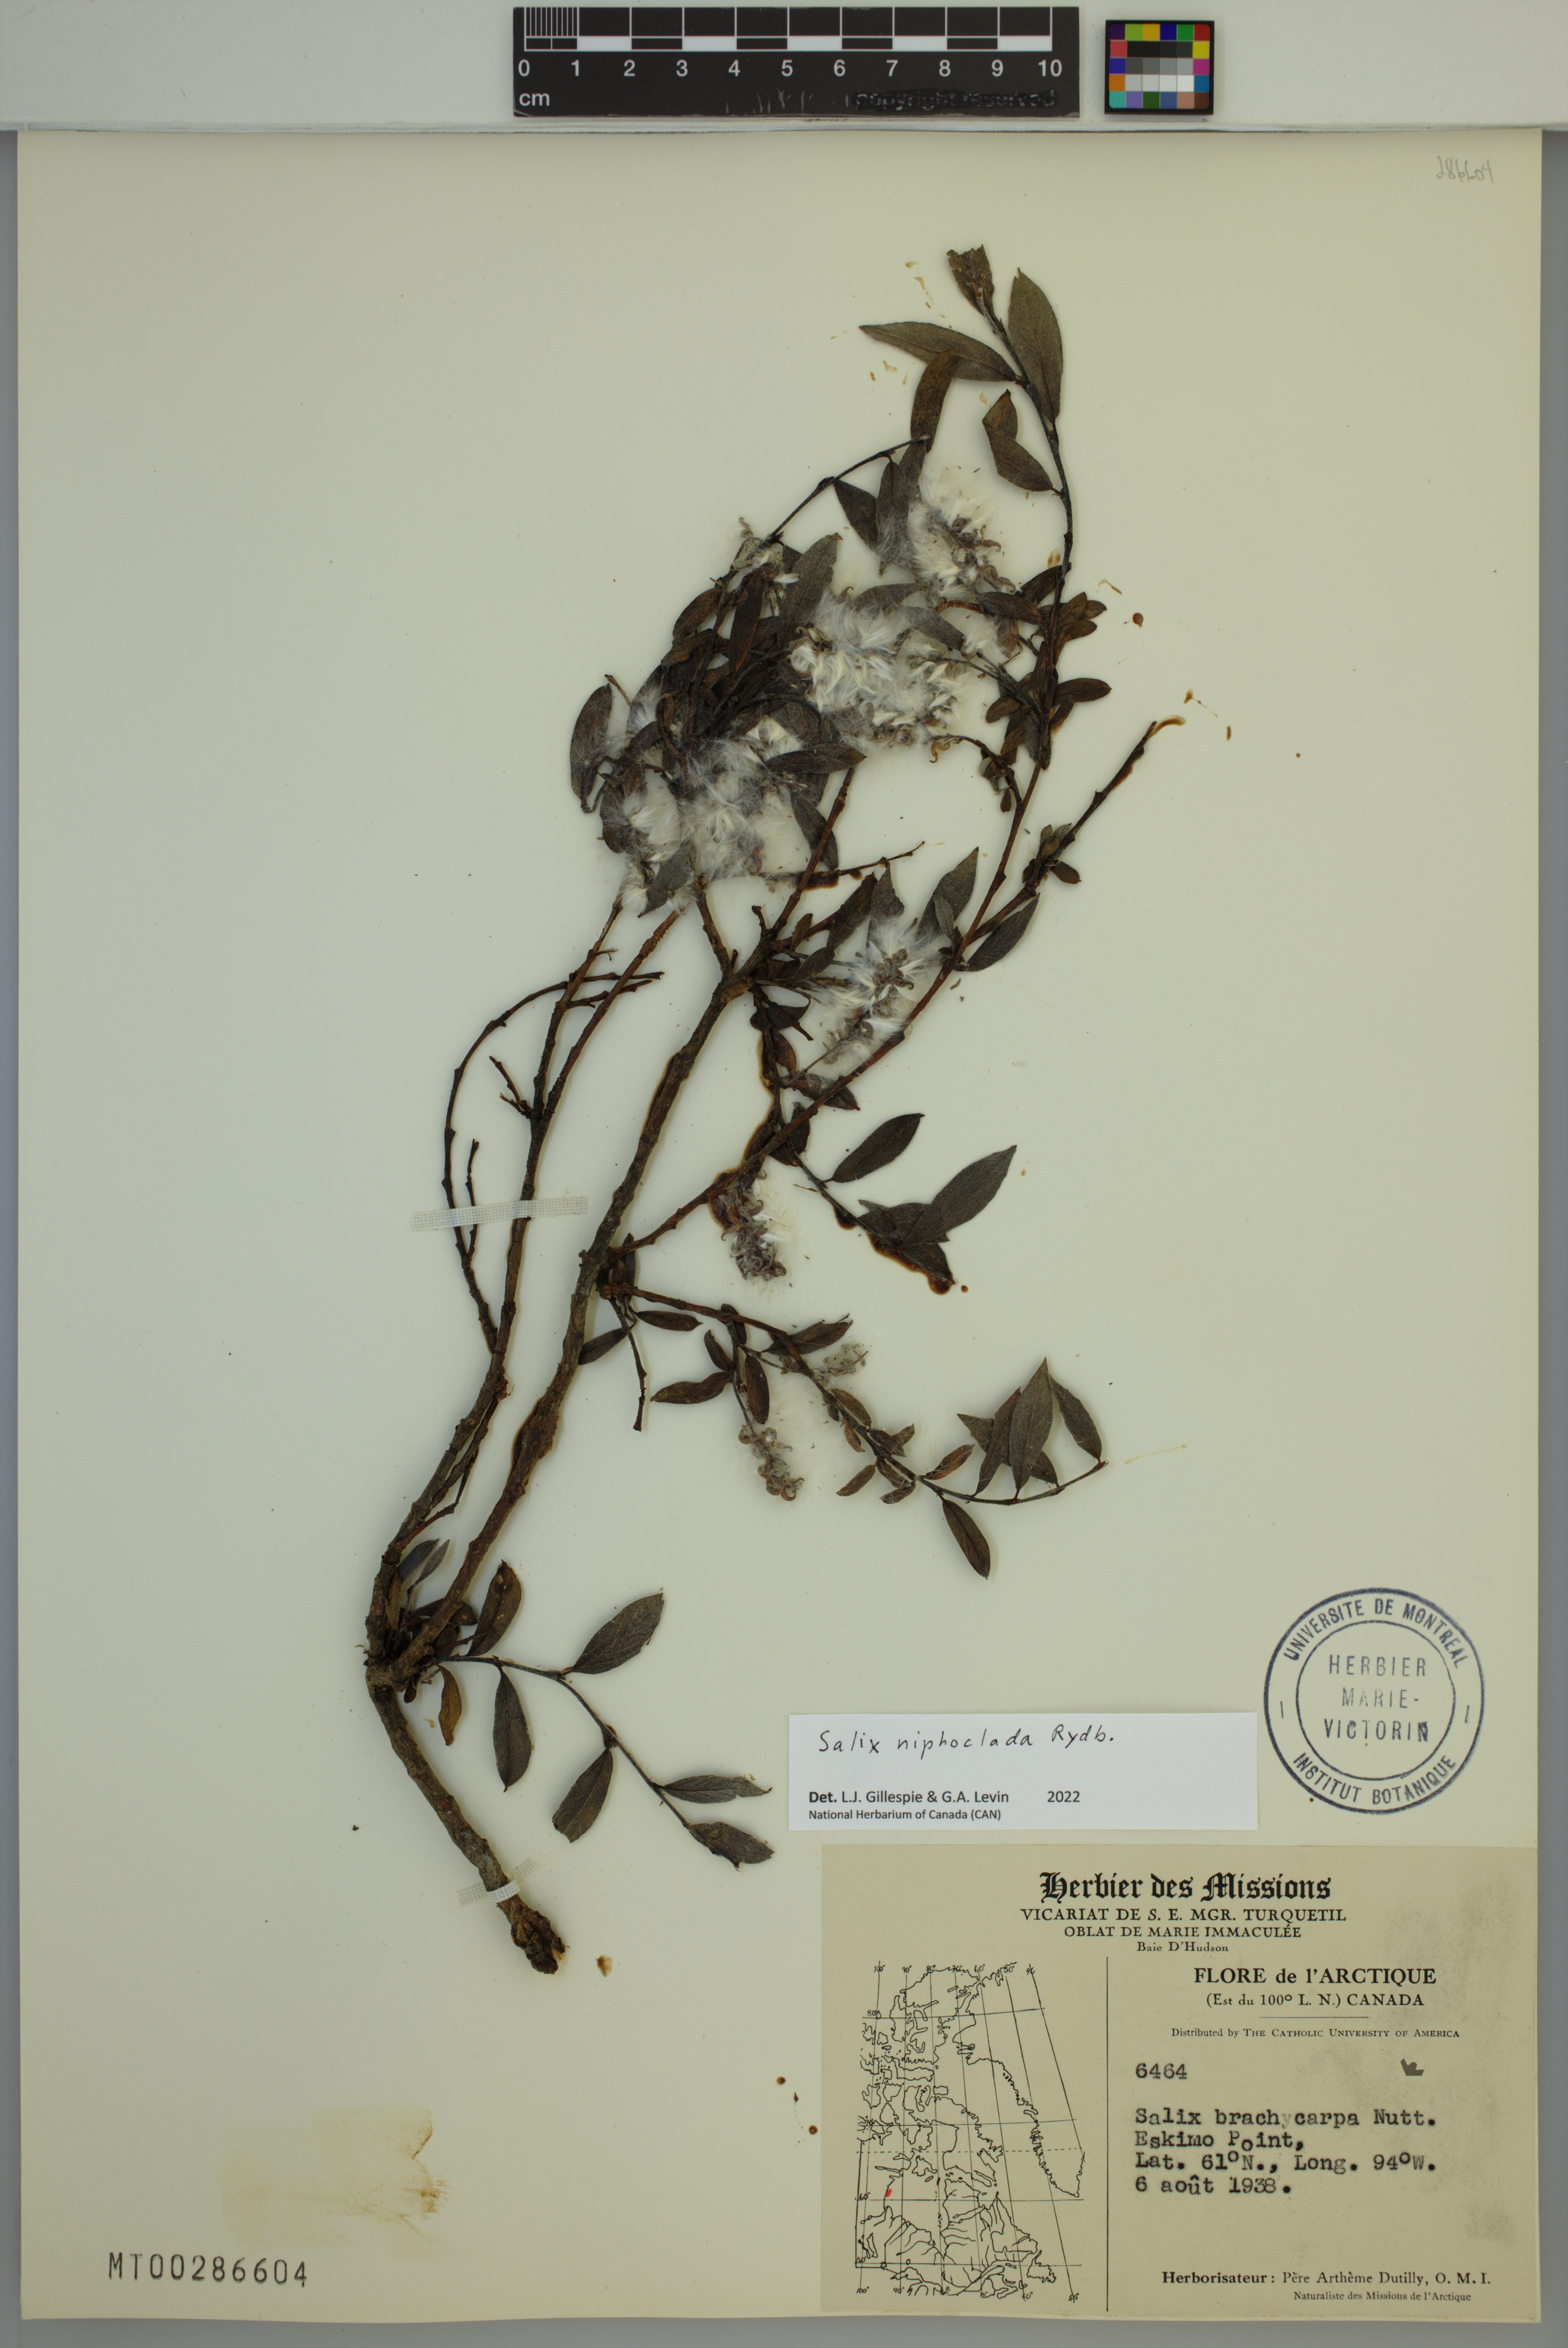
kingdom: Plantae
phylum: Tracheophyta
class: Magnoliopsida
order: Malpighiales
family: Salicaceae
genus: Salix
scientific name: Salix niphoclada
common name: Barren-ground willow
